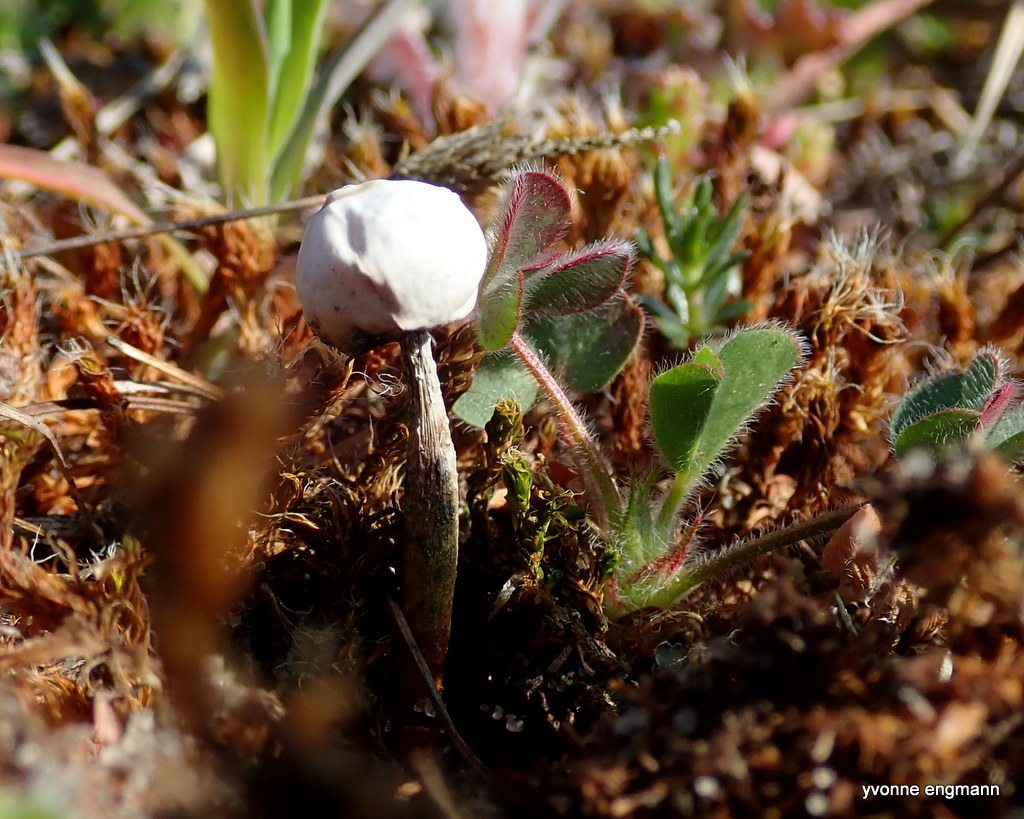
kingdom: Fungi
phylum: Basidiomycota
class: Agaricomycetes
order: Agaricales
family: Agaricaceae
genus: Tulostoma
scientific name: Tulostoma brumale
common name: vinter-stilkbovist
